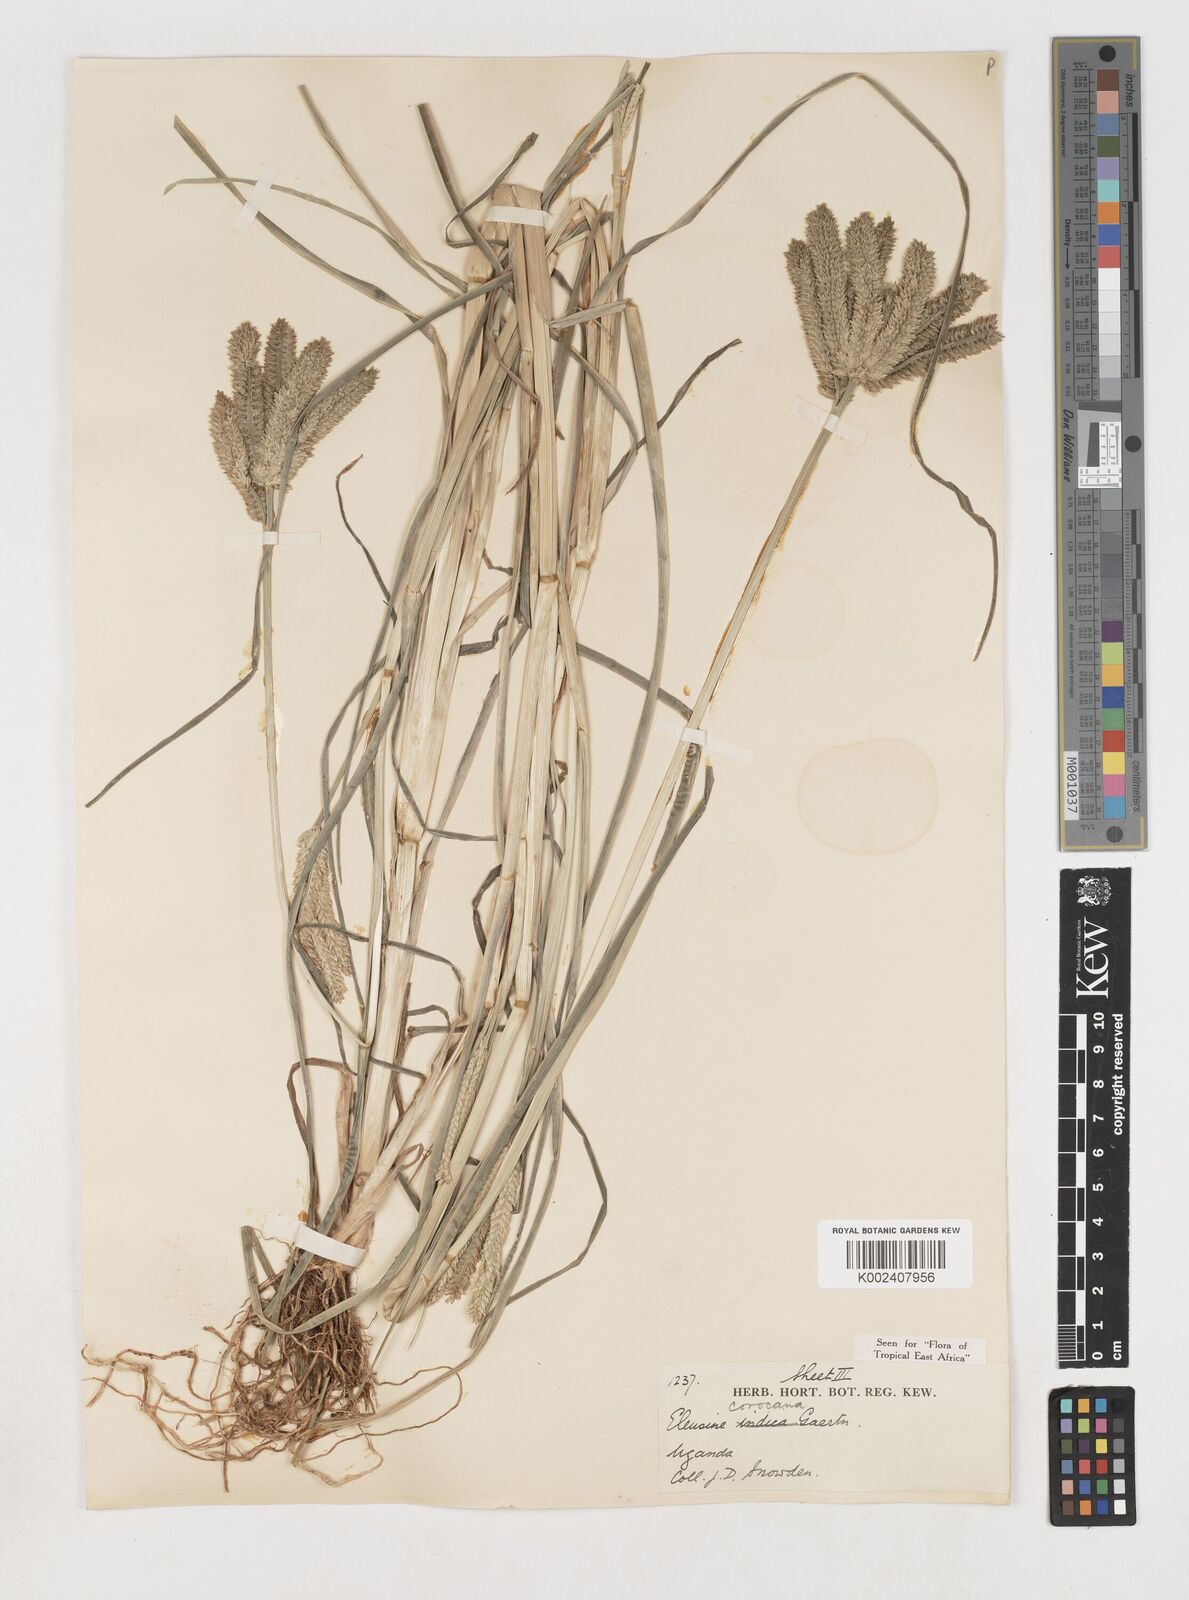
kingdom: Plantae
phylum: Tracheophyta
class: Liliopsida
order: Poales
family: Poaceae
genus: Eleusine
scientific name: Eleusine coracana
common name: Finger millet
